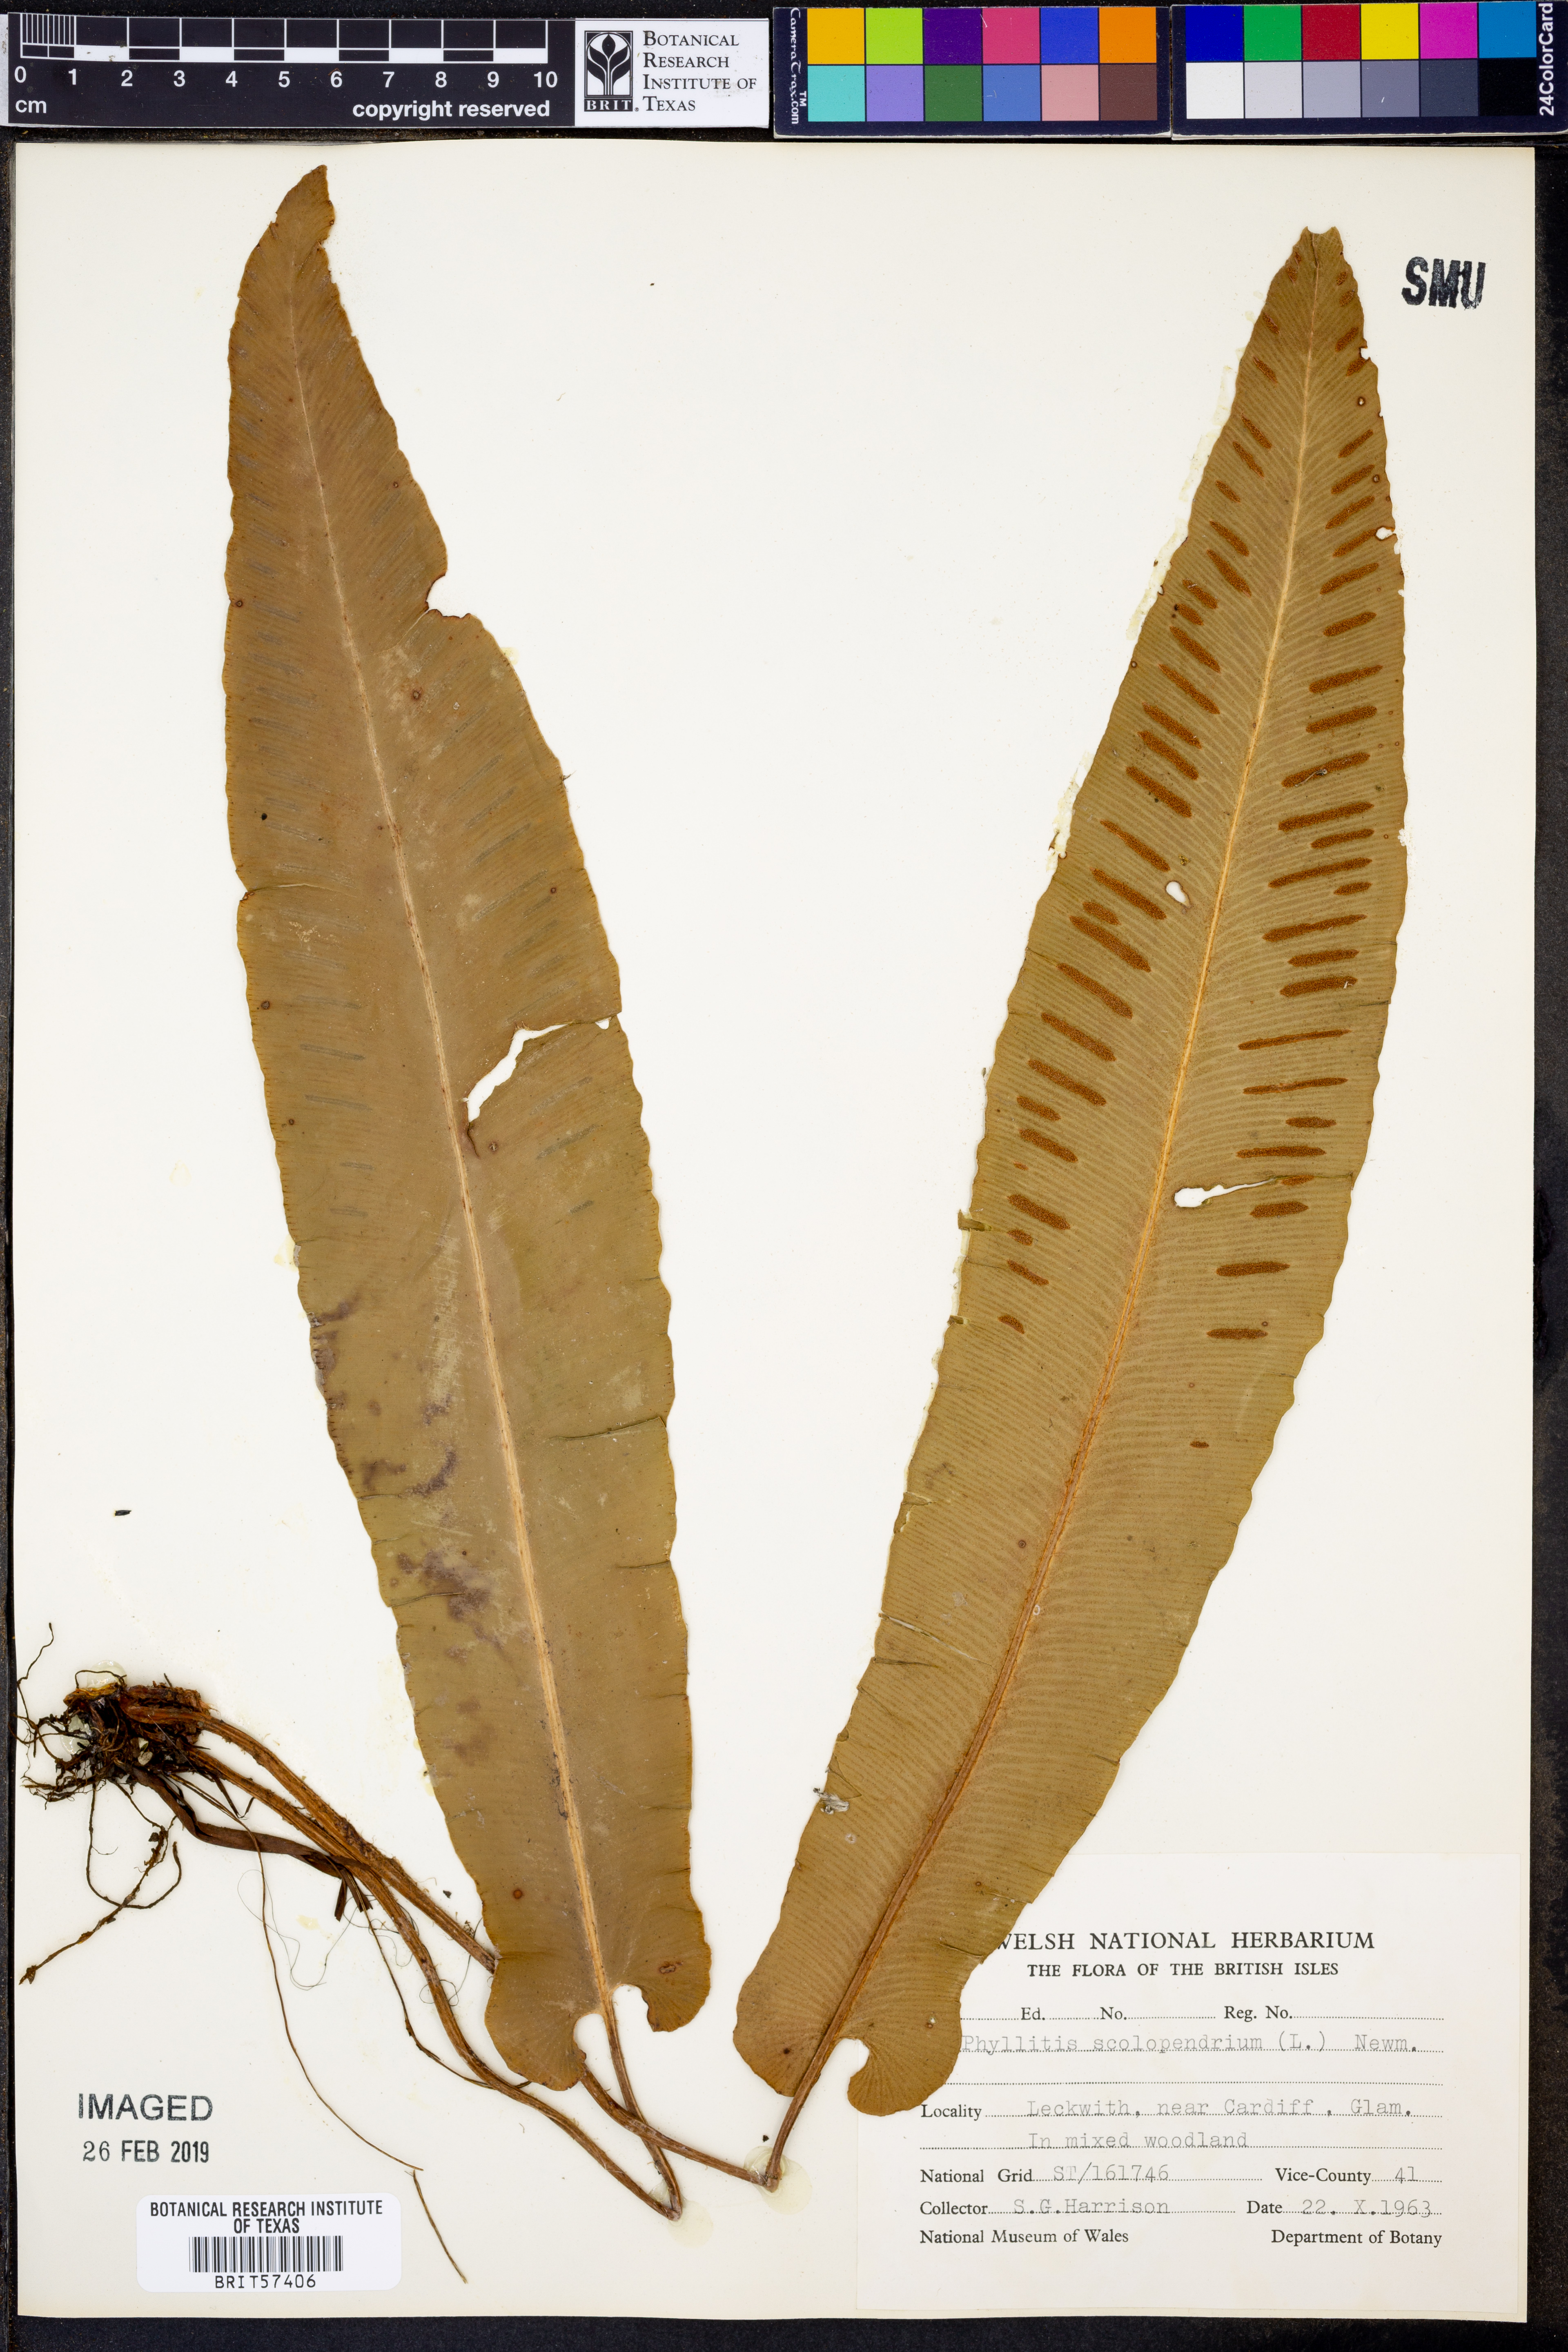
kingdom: Plantae
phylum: Tracheophyta
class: Polypodiopsida
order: Polypodiales
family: Aspleniaceae
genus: Asplenium
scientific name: Asplenium scolopendrium
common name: Hart's-tongue fern
